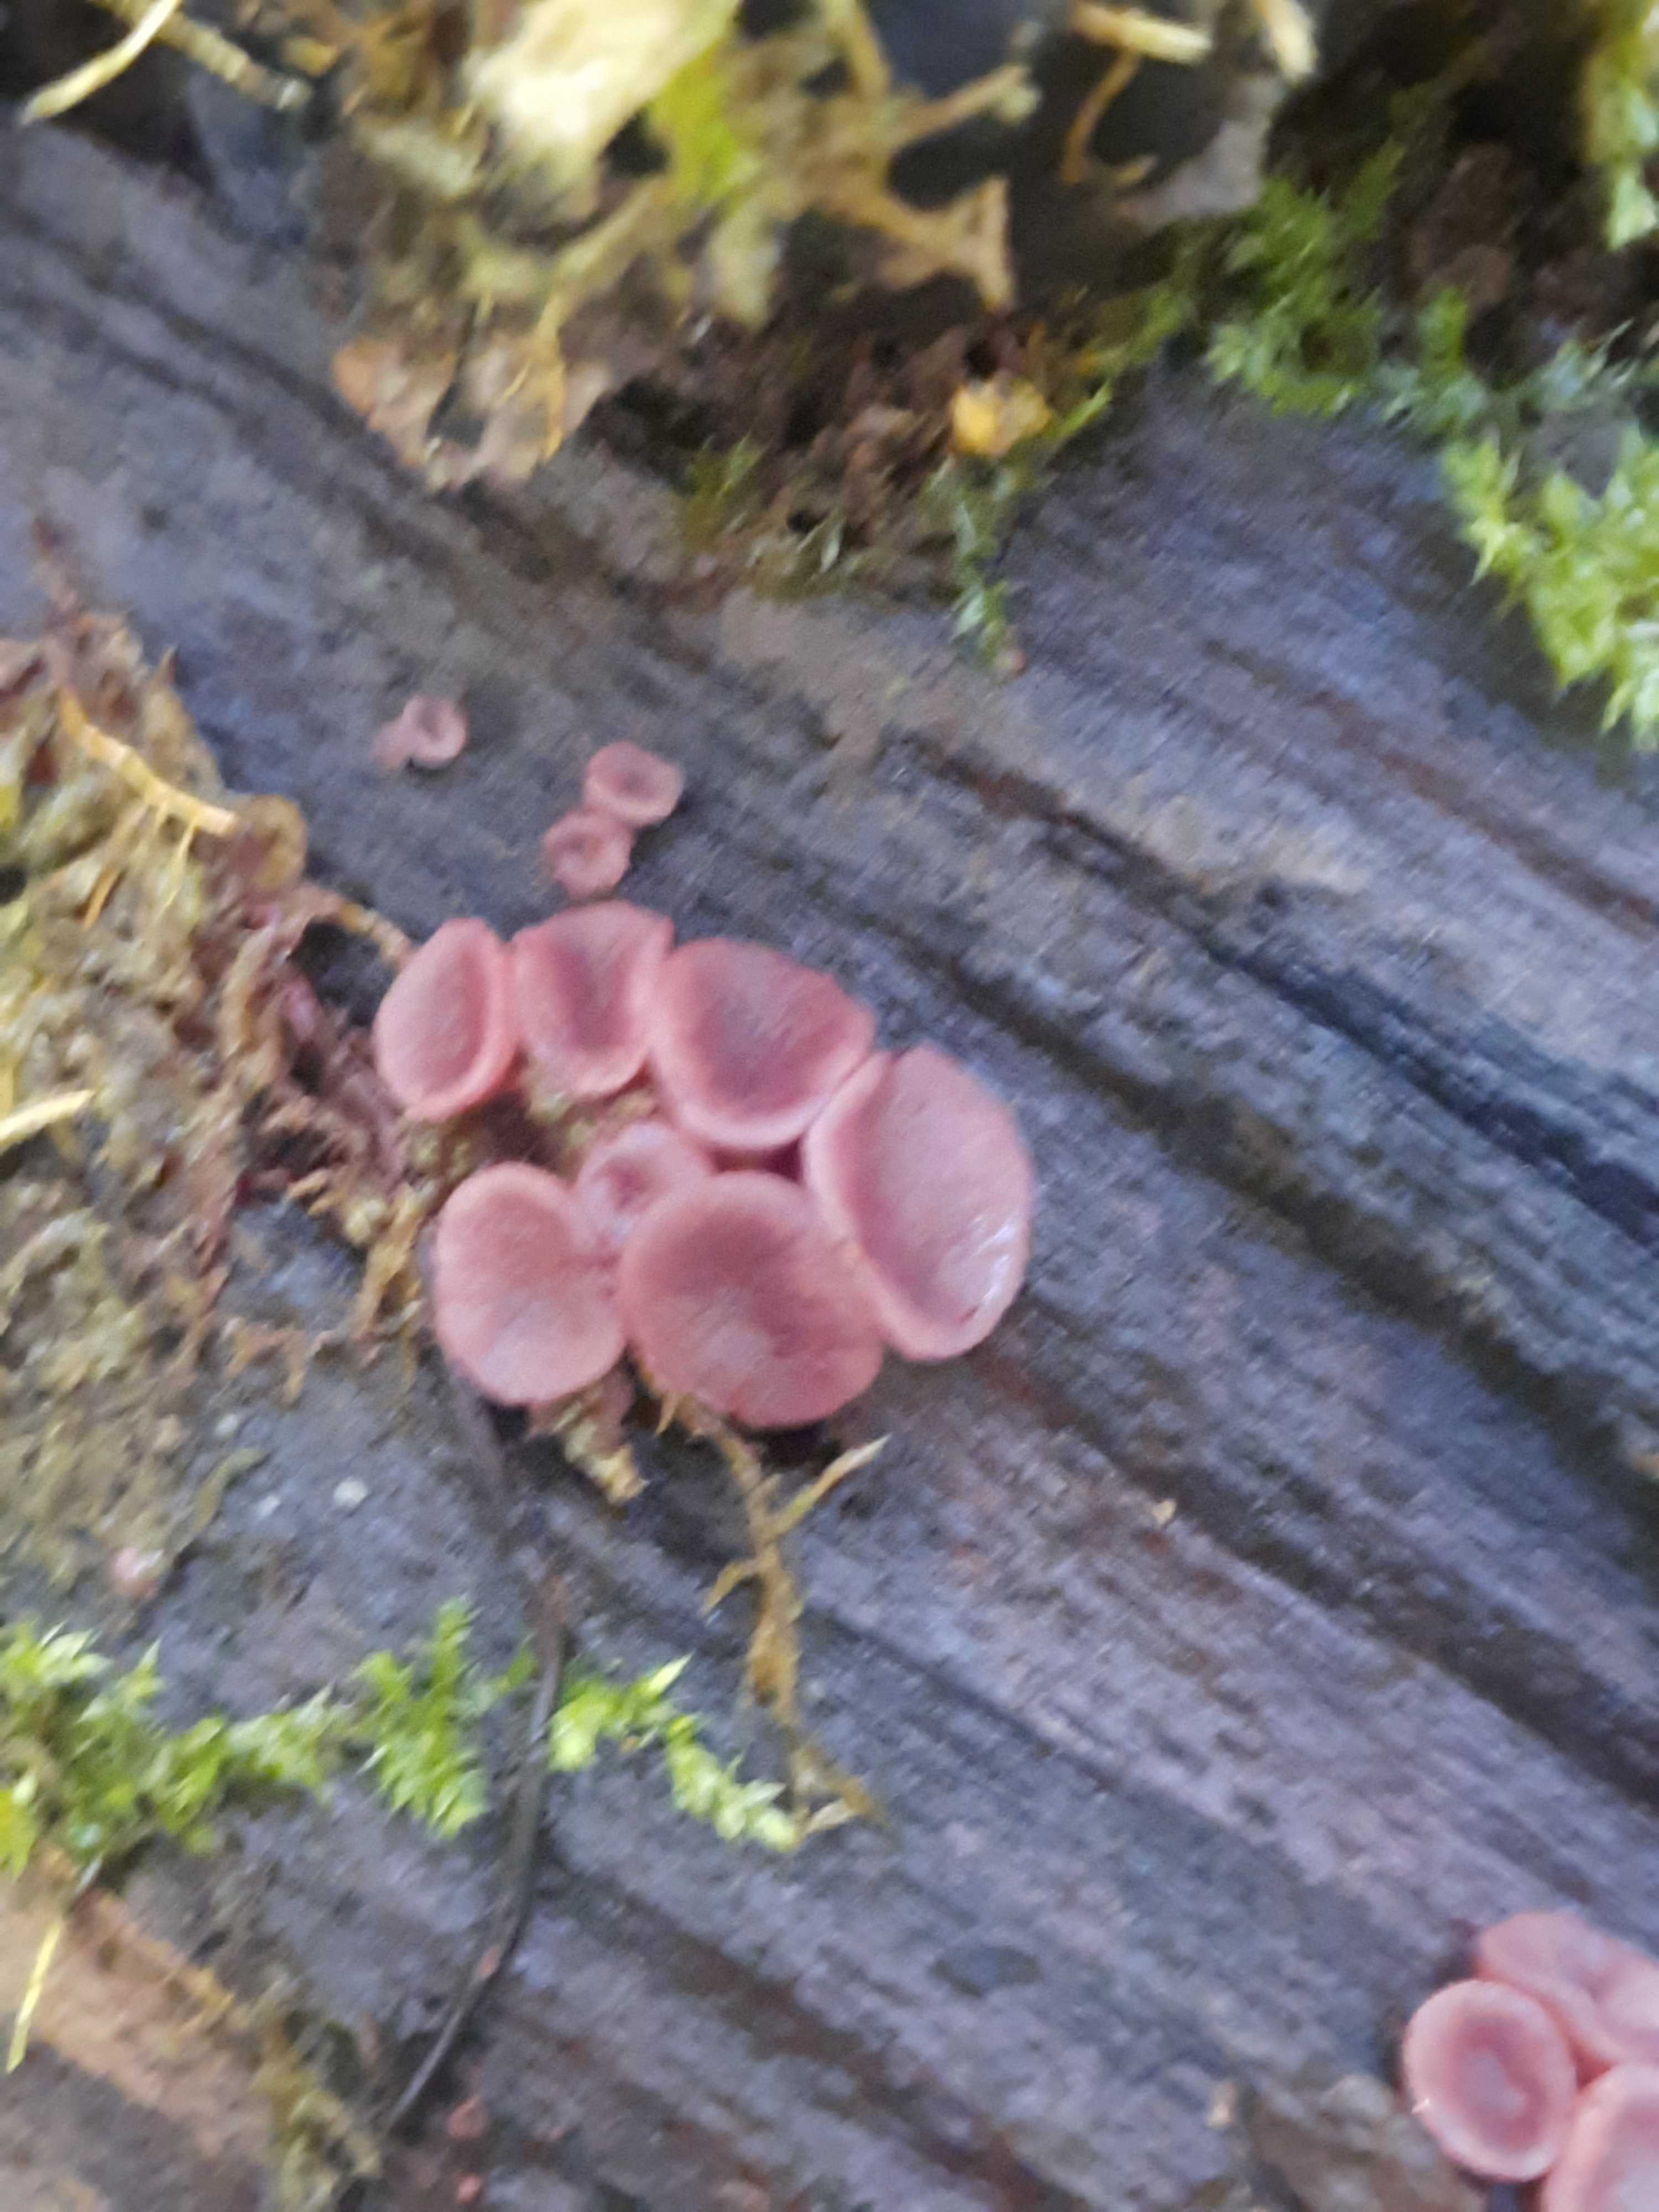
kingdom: Fungi
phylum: Ascomycota
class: Leotiomycetes
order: Helotiales
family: Gelatinodiscaceae
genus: Ascocoryne
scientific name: Ascocoryne
